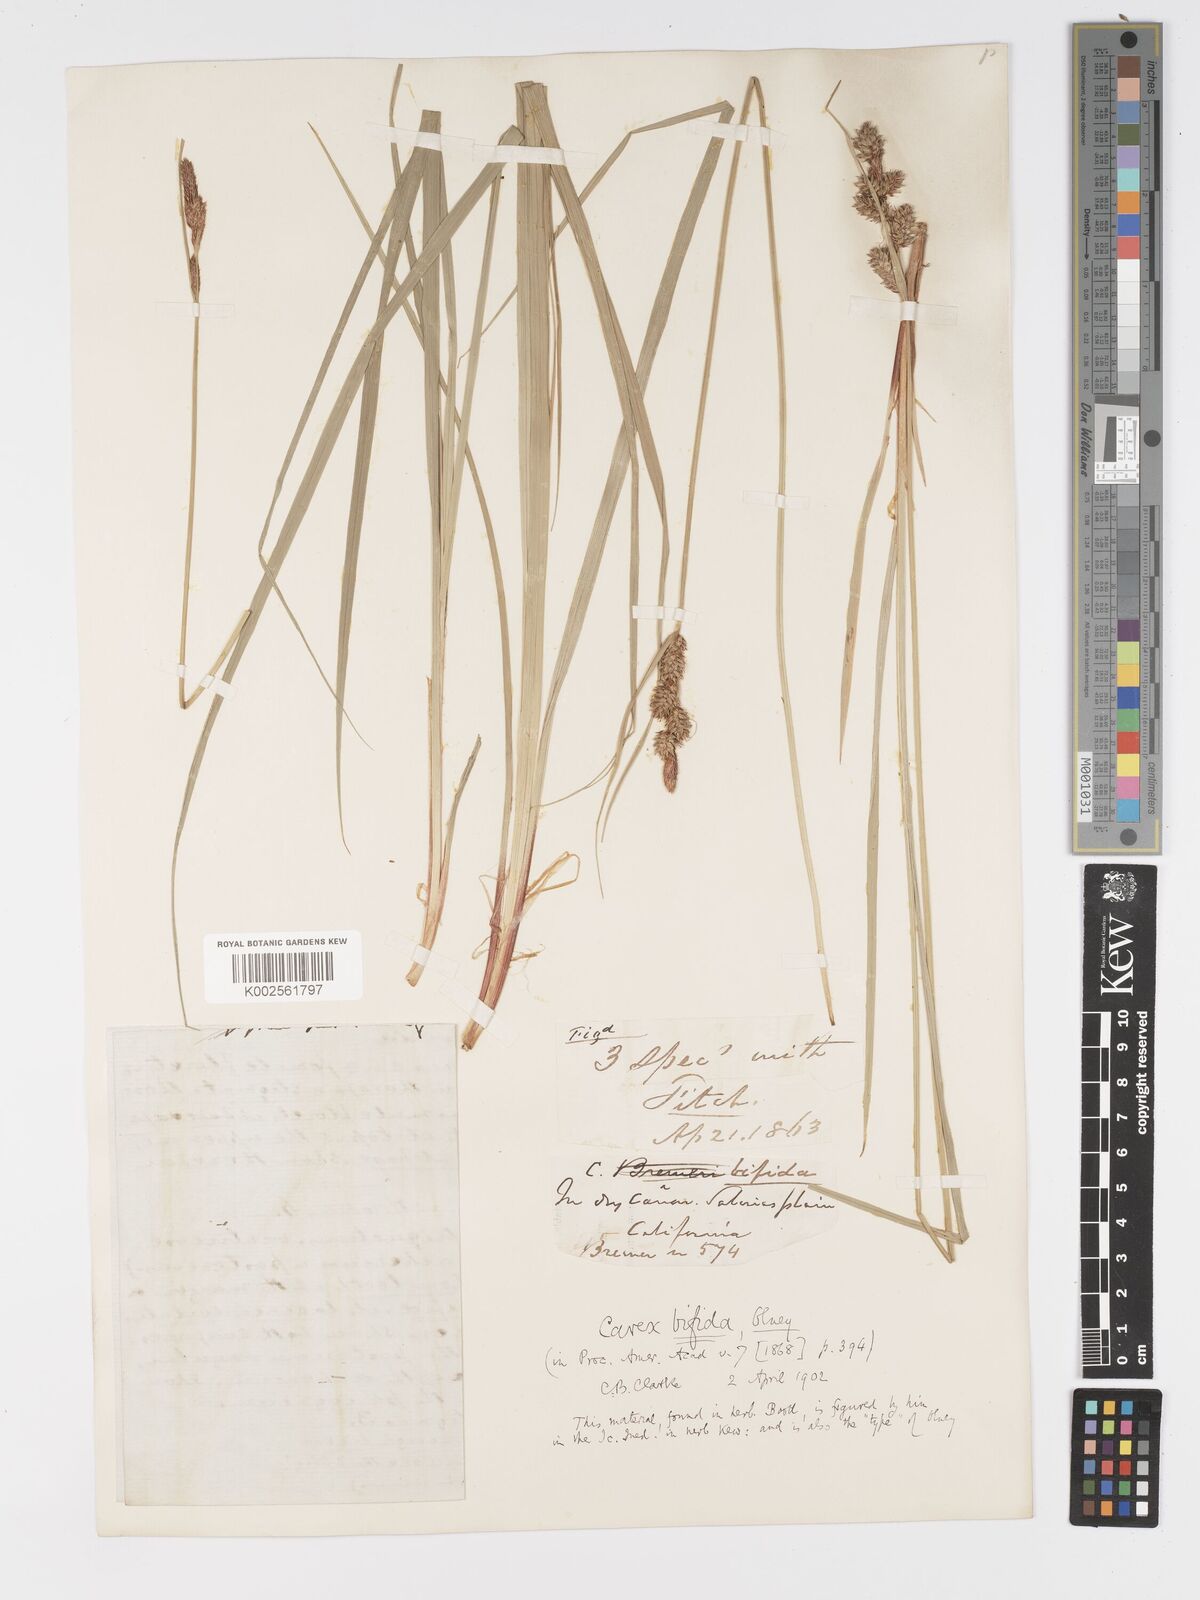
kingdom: Plantae
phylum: Tracheophyta
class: Liliopsida
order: Poales
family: Cyperaceae
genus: Carex
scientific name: Carex serratodens
